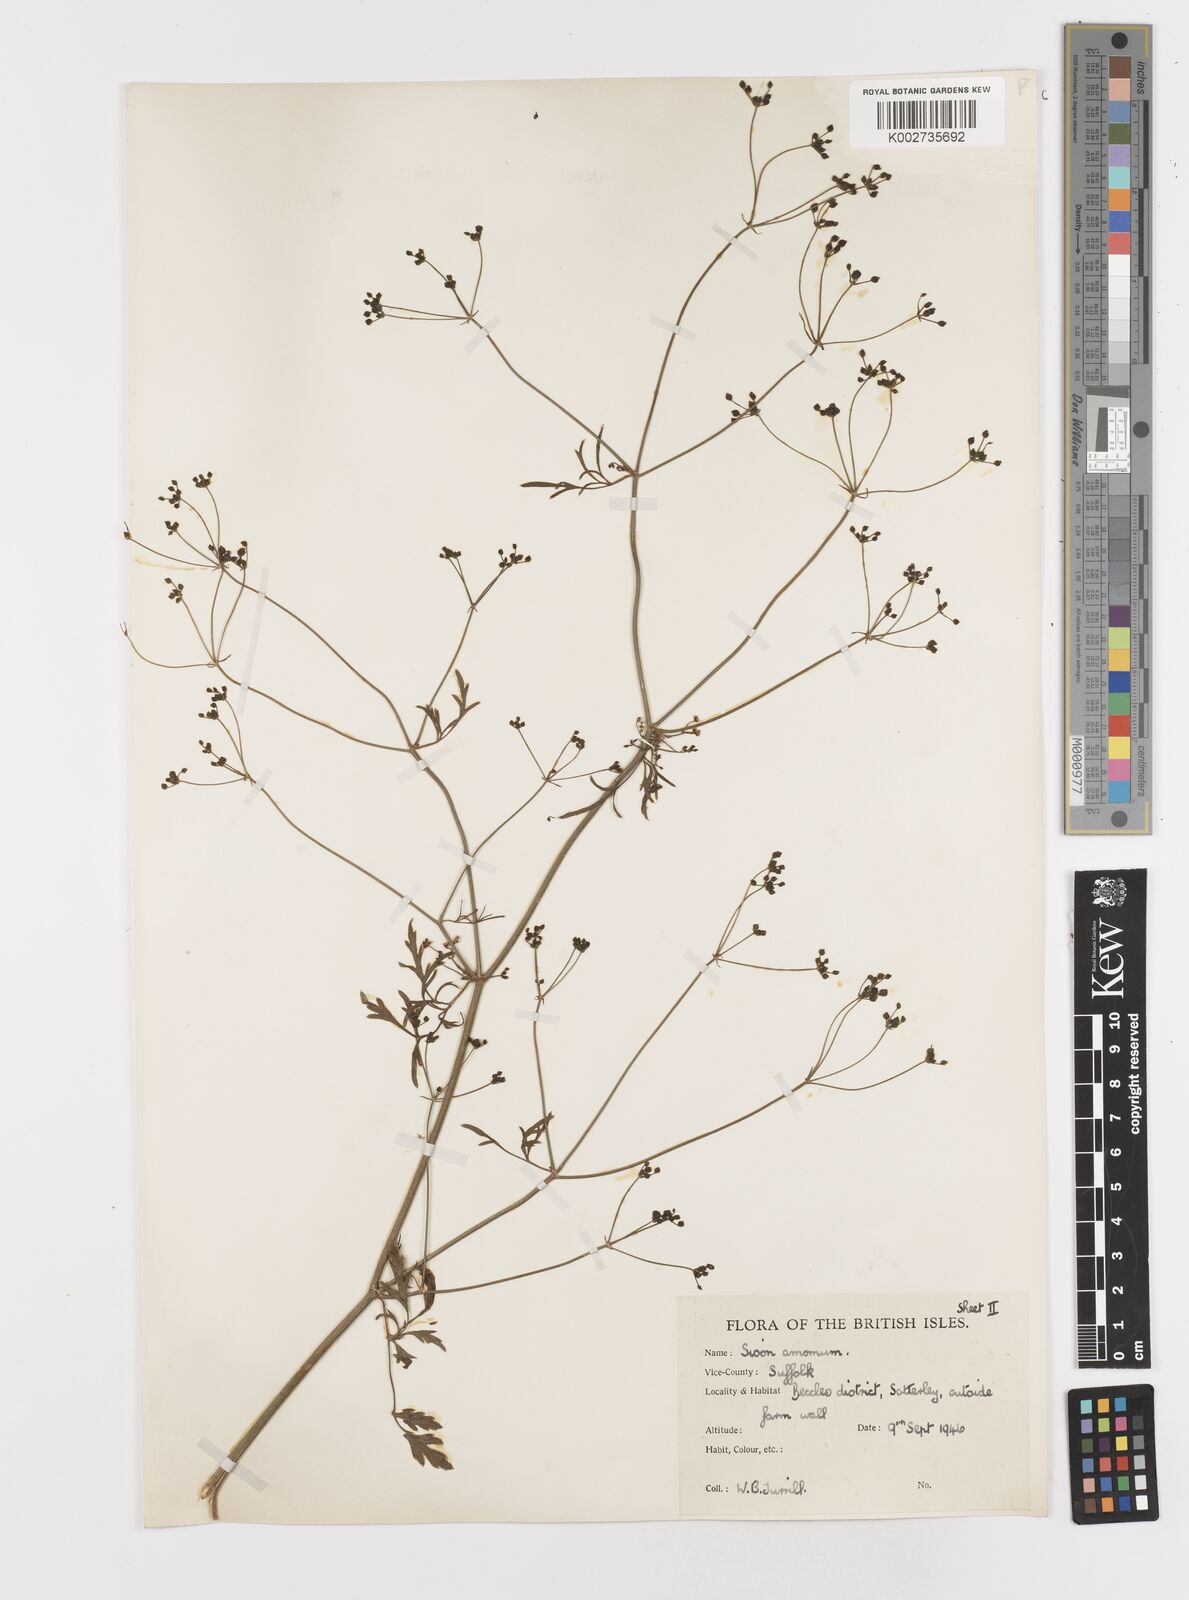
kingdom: Plantae
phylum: Tracheophyta
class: Magnoliopsida
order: Apiales
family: Apiaceae
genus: Sison
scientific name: Sison amomum
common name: Stone-parsley
